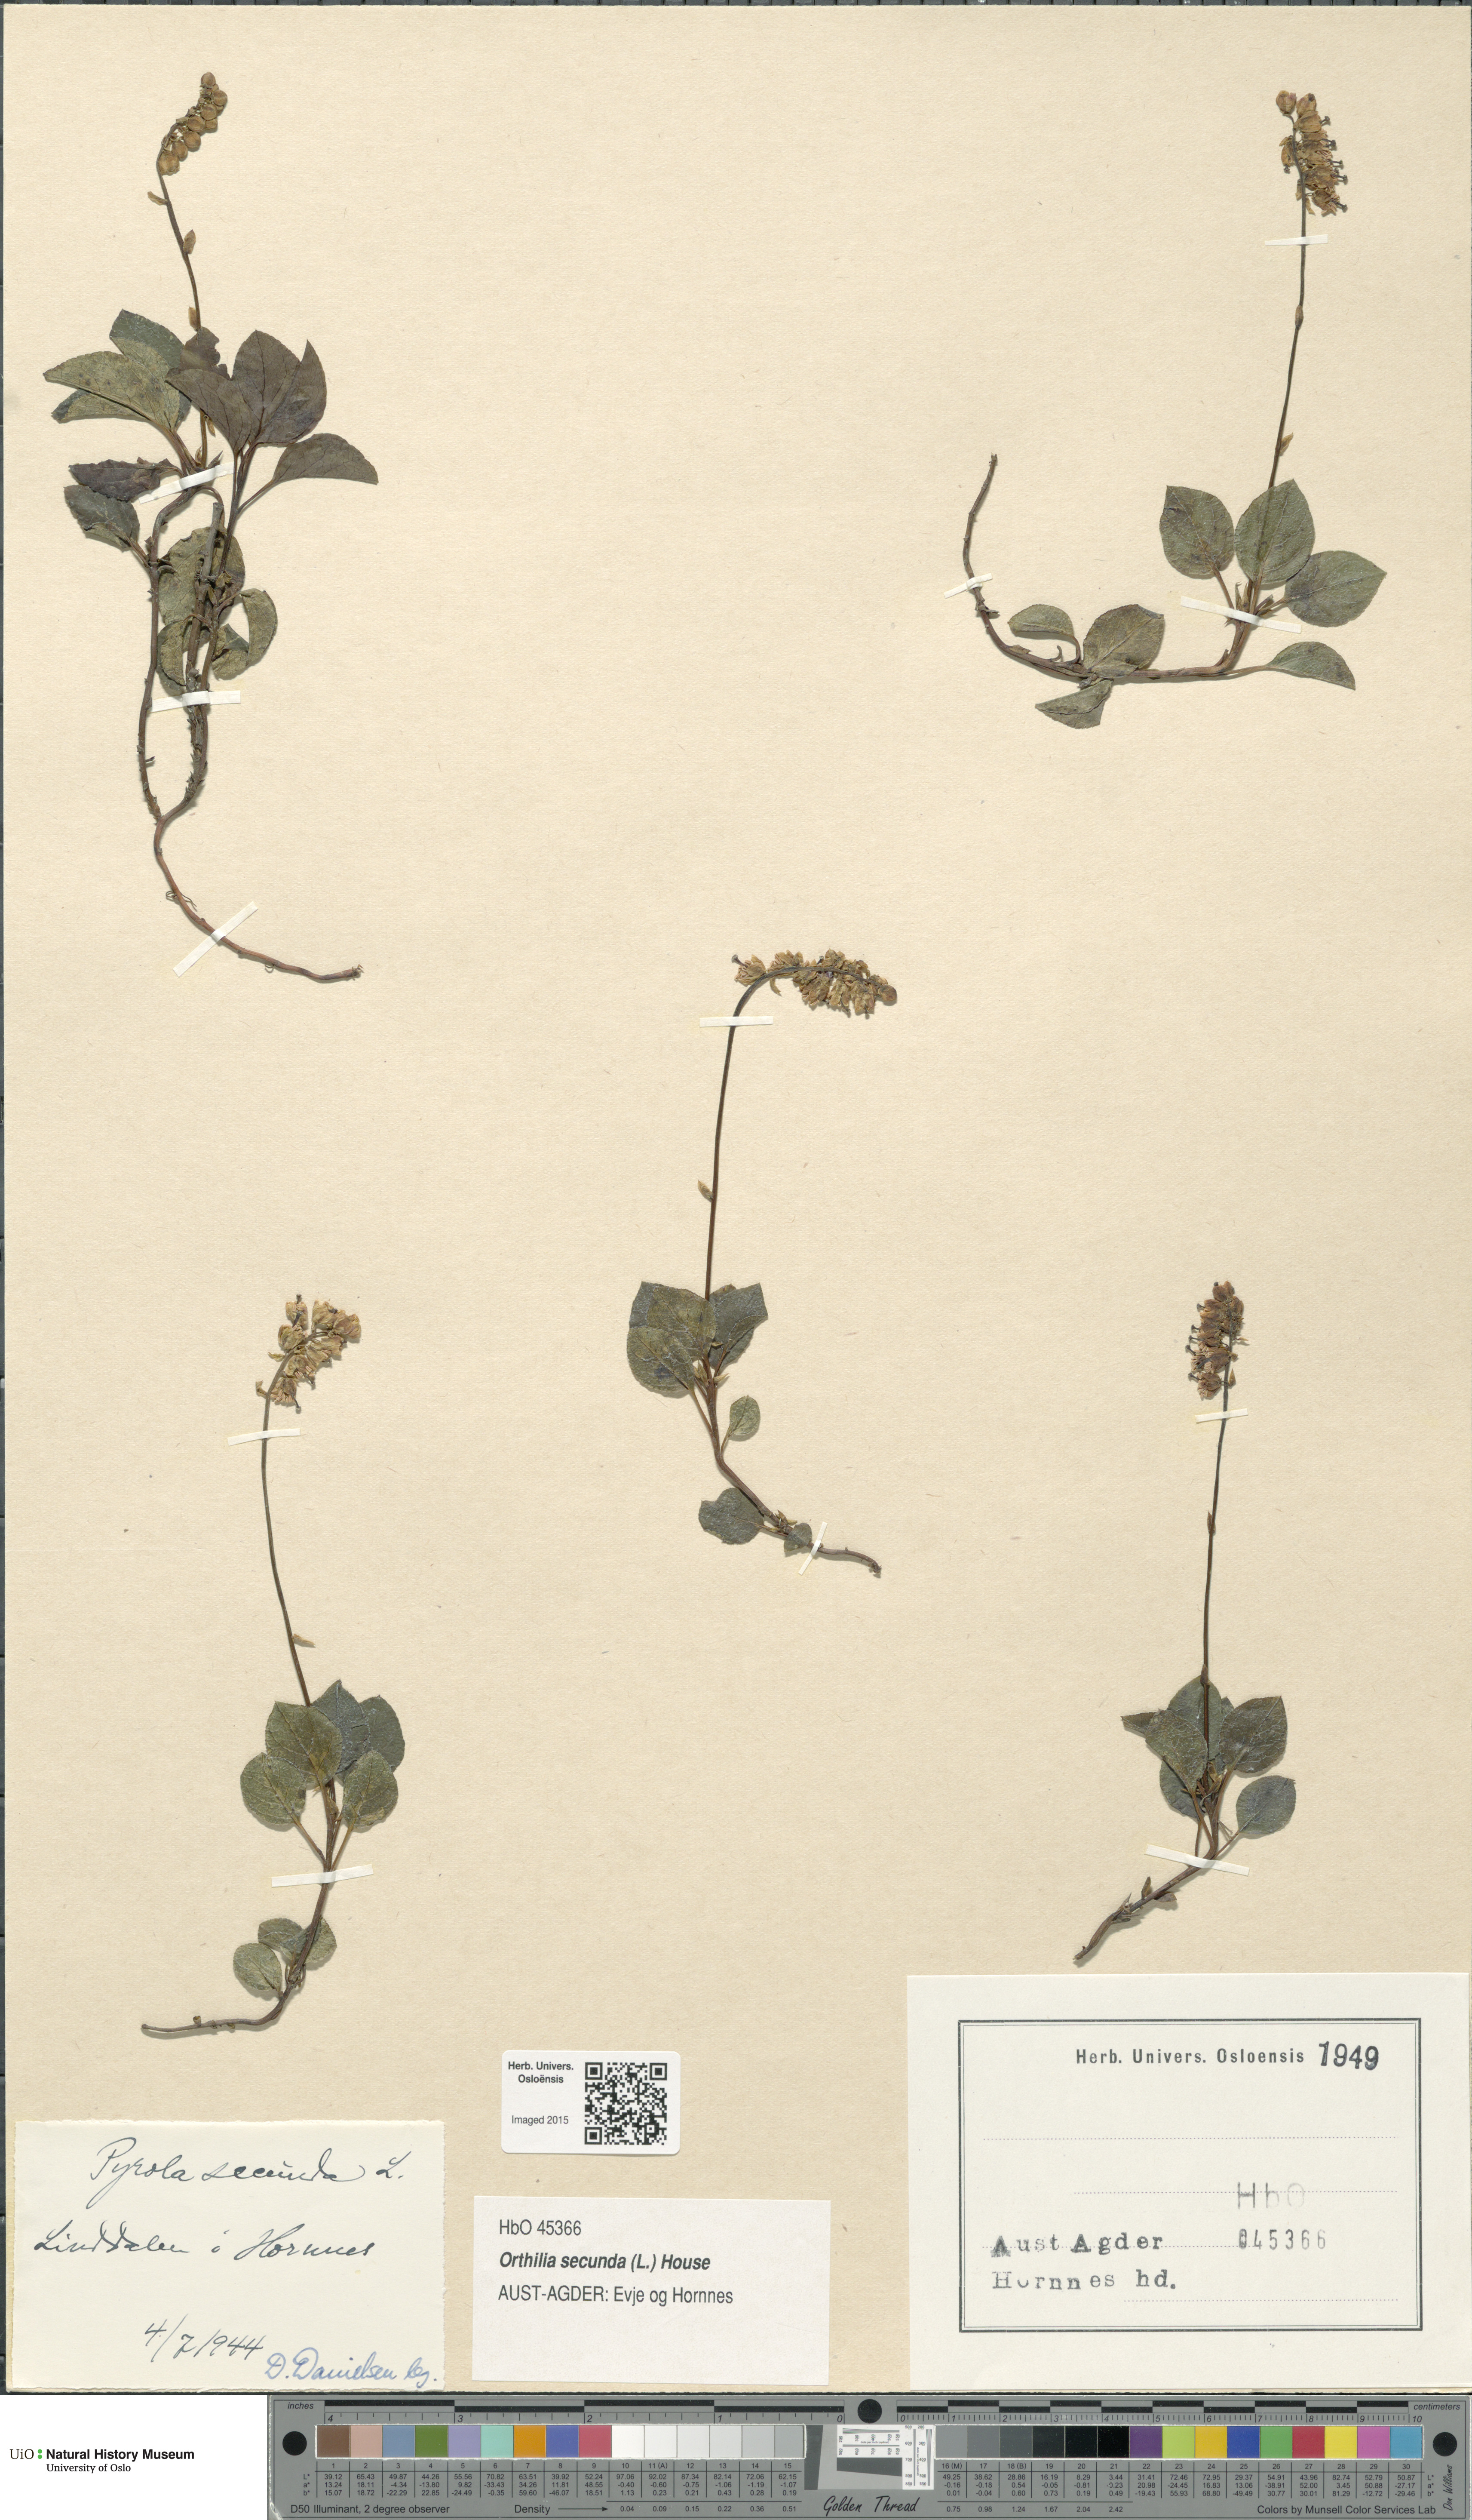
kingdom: Plantae
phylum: Tracheophyta
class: Magnoliopsida
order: Ericales
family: Ericaceae
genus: Orthilia
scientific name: Orthilia secunda
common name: One-sided orthilia
